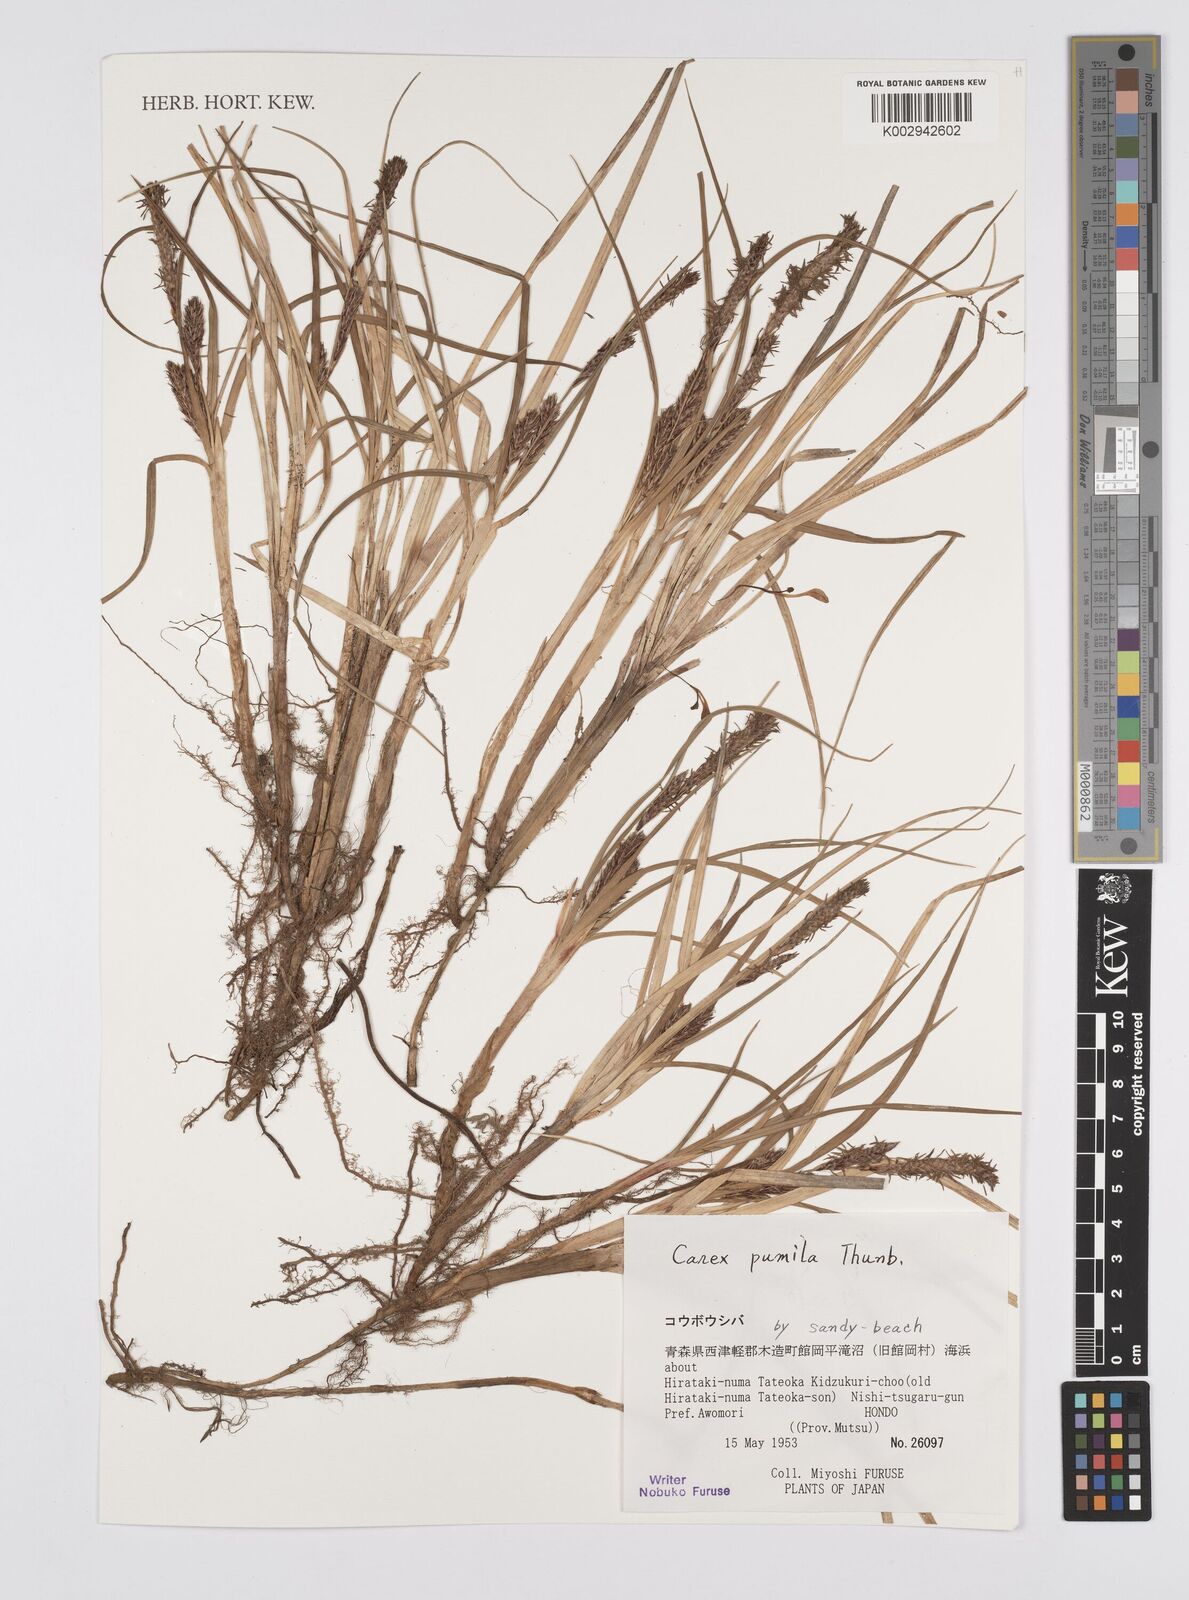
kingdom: Plantae
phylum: Tracheophyta
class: Liliopsida
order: Poales
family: Cyperaceae
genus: Carex
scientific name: Carex pumila
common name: Dwarf sedge
